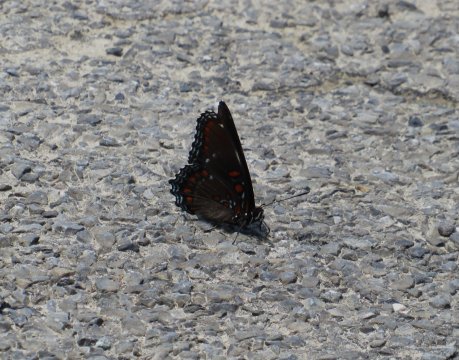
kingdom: Animalia
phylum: Arthropoda
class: Insecta
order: Lepidoptera
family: Nymphalidae
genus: Limenitis
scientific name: Limenitis arthemis
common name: Red-spotted Admiral
